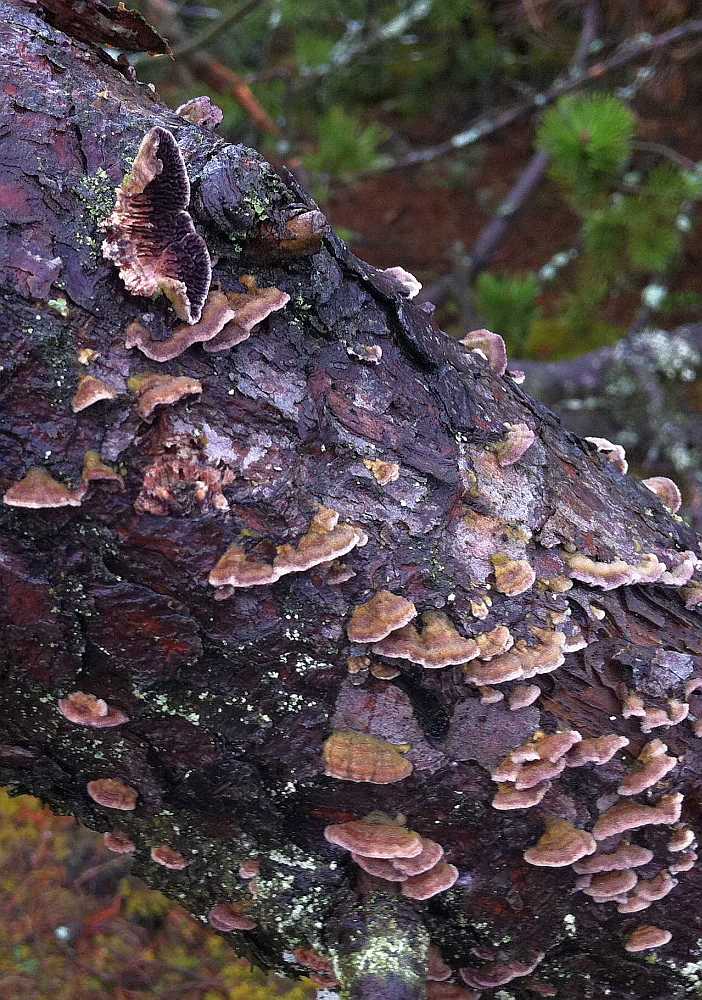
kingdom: Fungi
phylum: Basidiomycota
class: Agaricomycetes
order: Hymenochaetales
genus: Trichaptum
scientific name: Trichaptum fuscoviolaceum
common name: tandet violporesvamp
